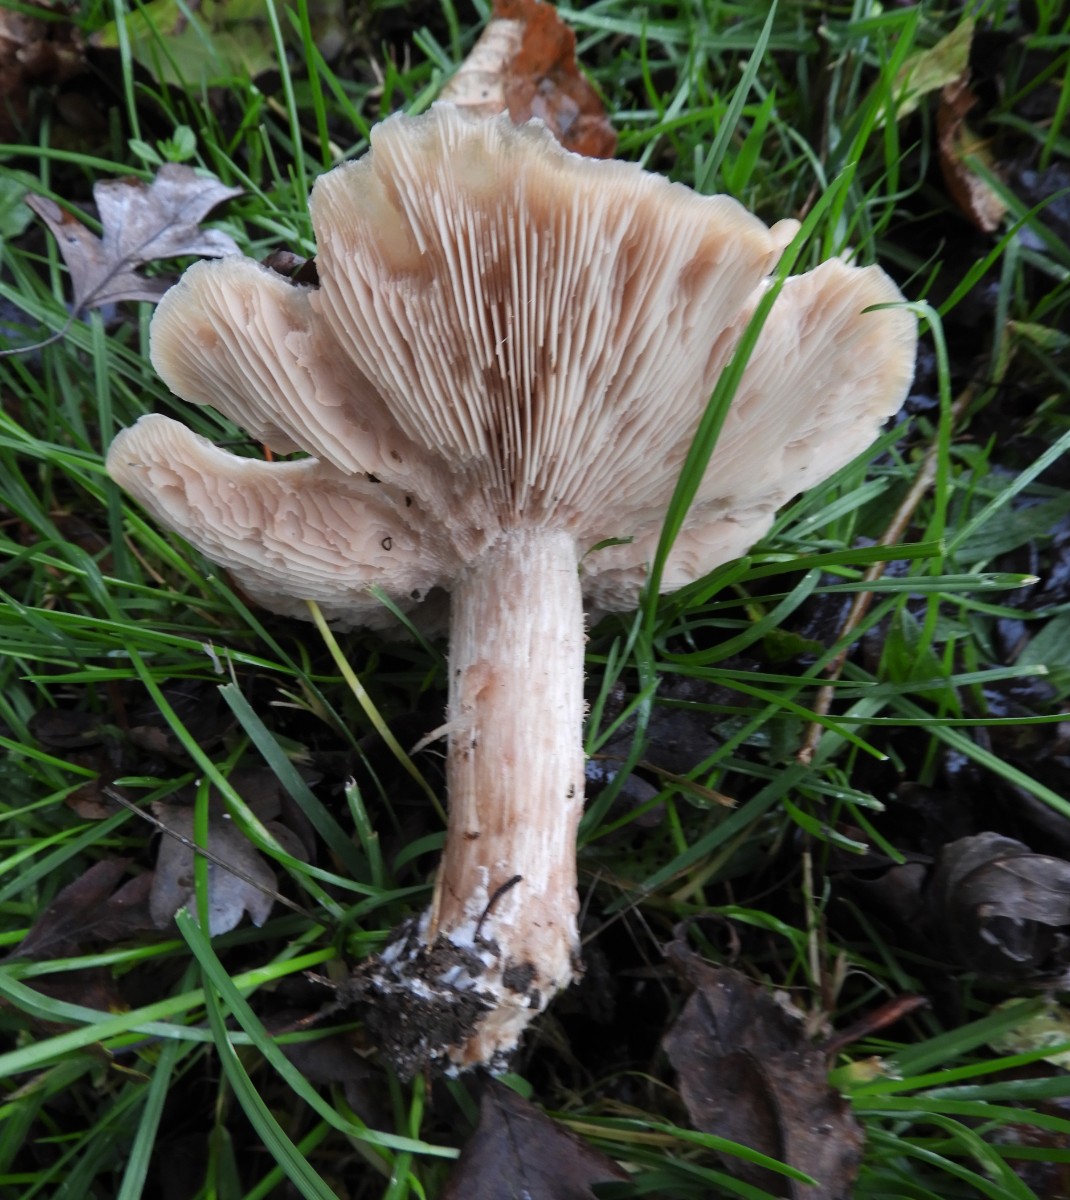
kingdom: Fungi
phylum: Basidiomycota
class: Agaricomycetes
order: Agaricales
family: Tricholomataceae
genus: Lepista
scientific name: Lepista personata
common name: bleg hekseringshat
